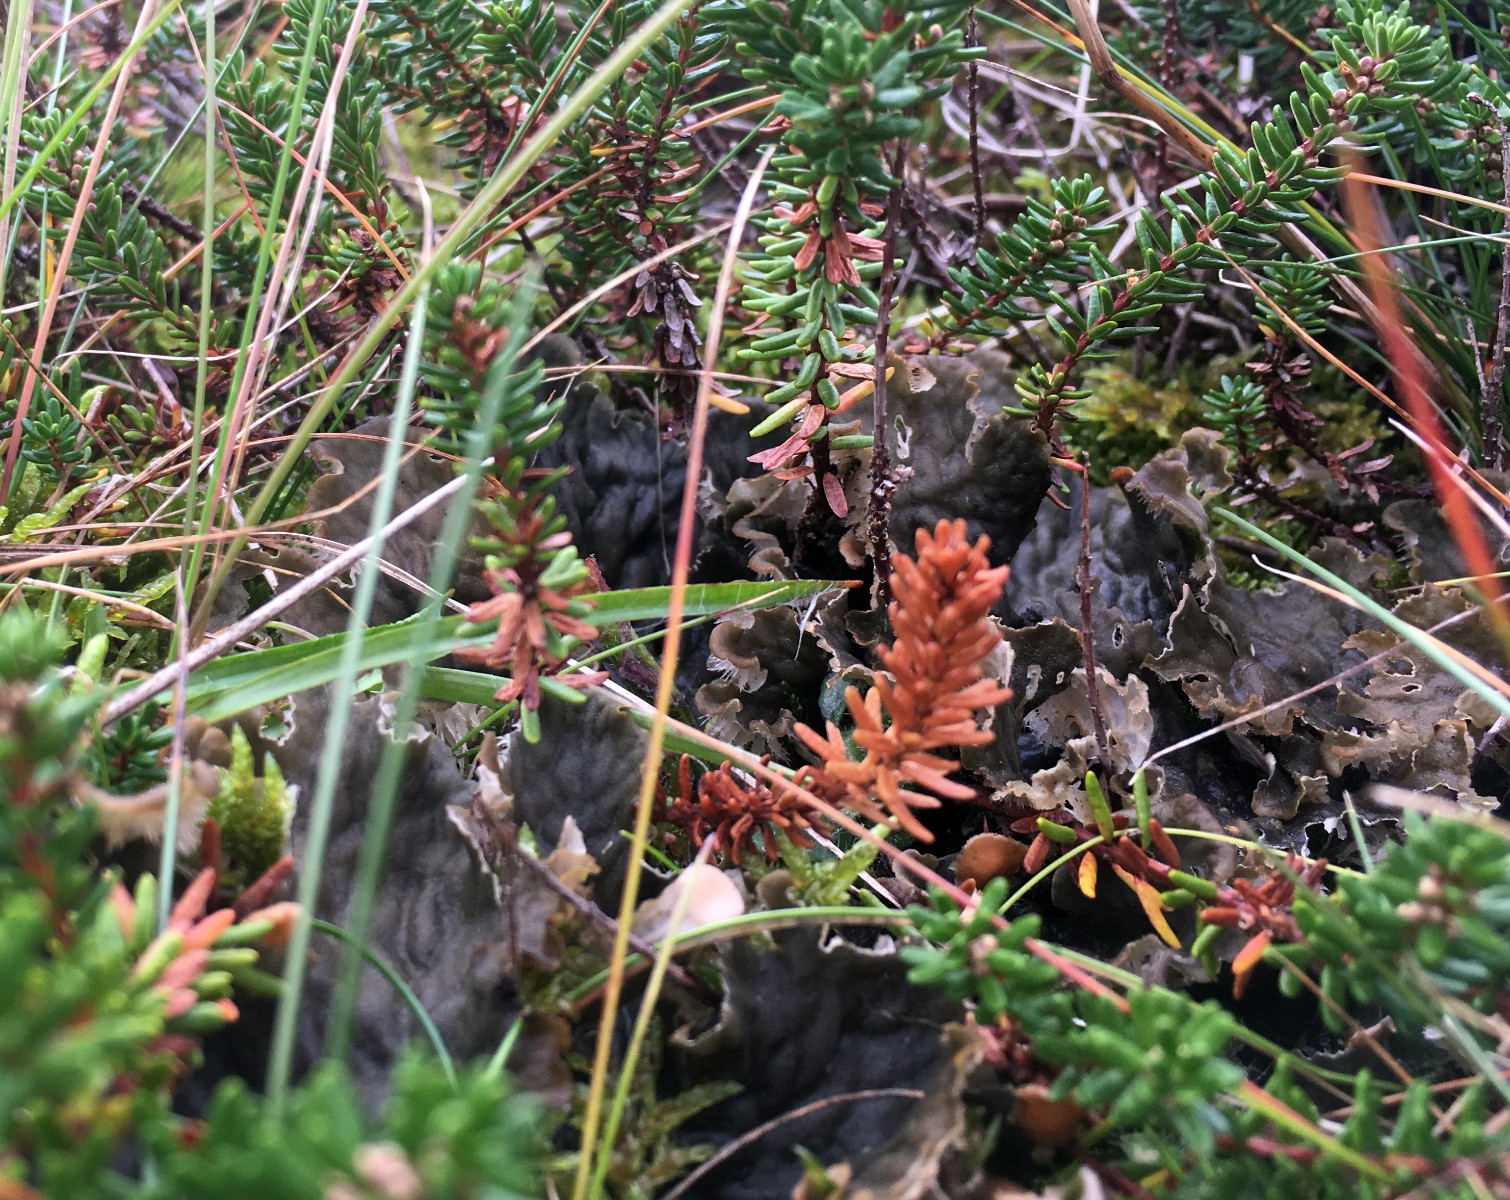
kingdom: Fungi
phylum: Ascomycota
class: Lecanoromycetes
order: Peltigerales
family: Peltigeraceae
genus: Peltigera
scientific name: Peltigera
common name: skjoldlav
